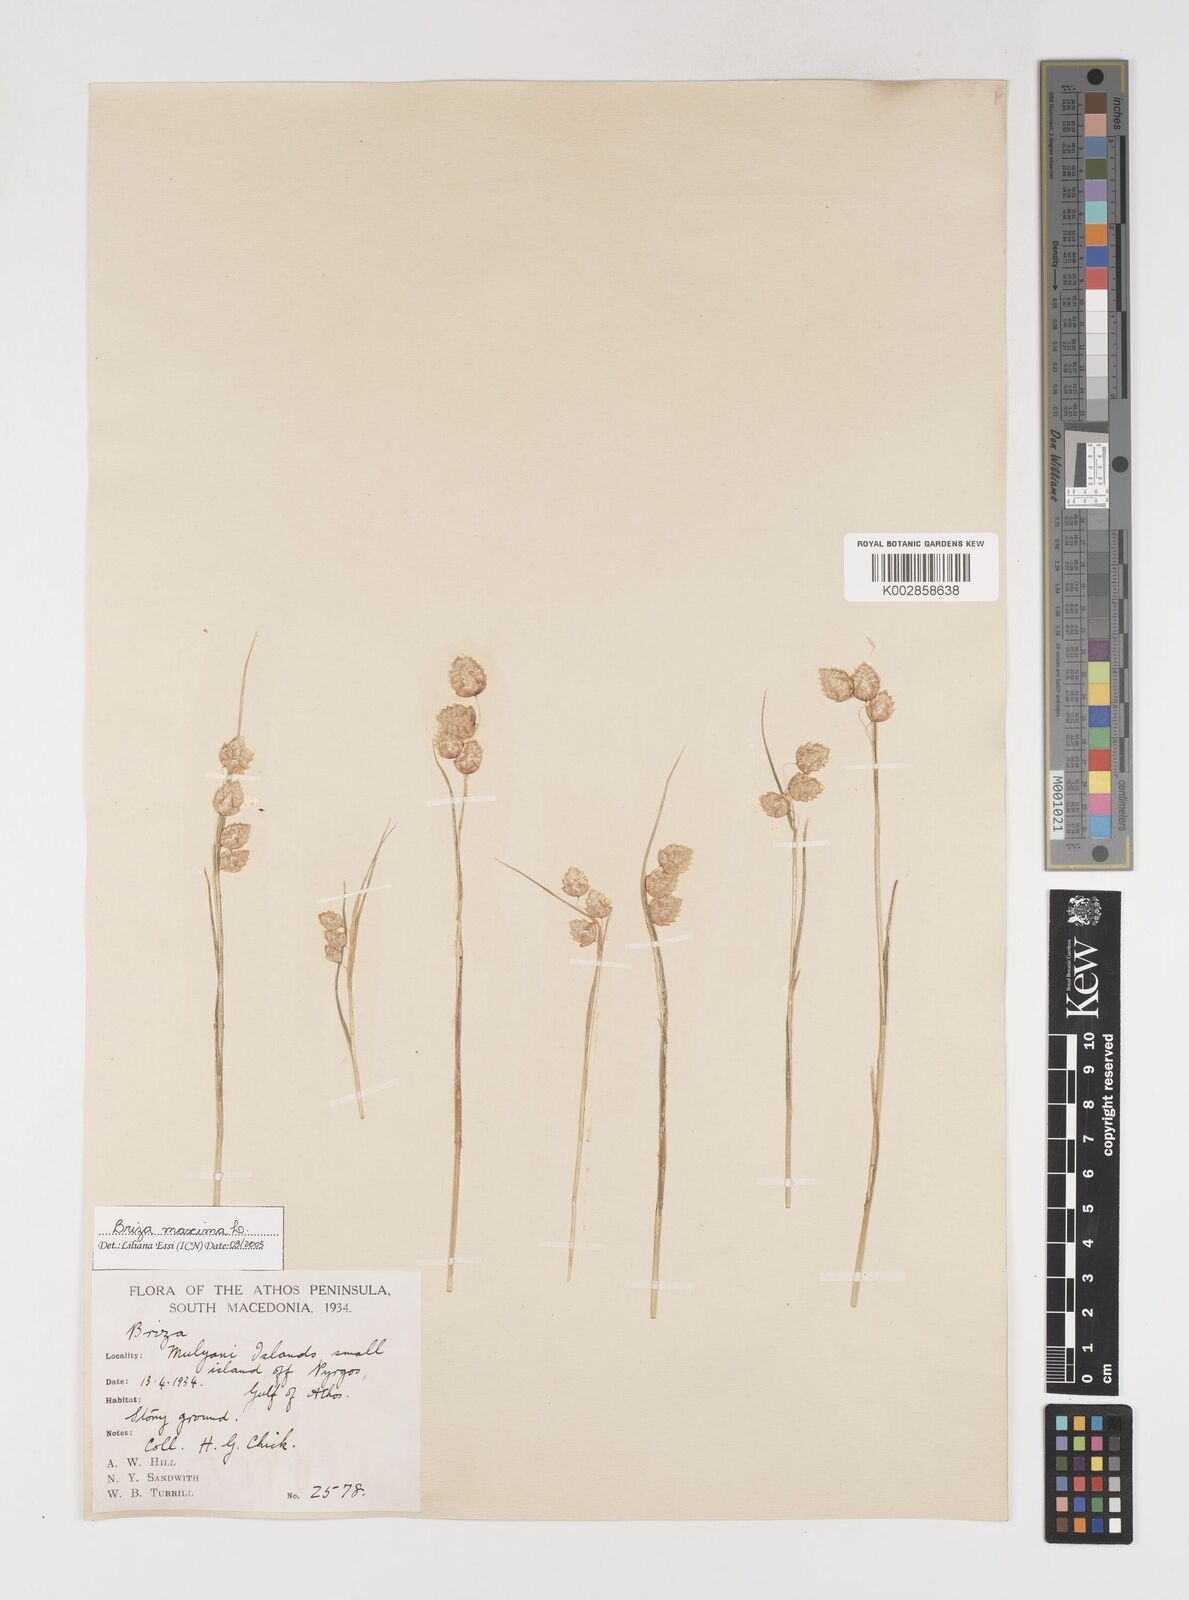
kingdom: Plantae
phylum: Tracheophyta
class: Liliopsida
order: Poales
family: Poaceae
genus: Briza
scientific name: Briza maxima
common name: Big quakinggrass
